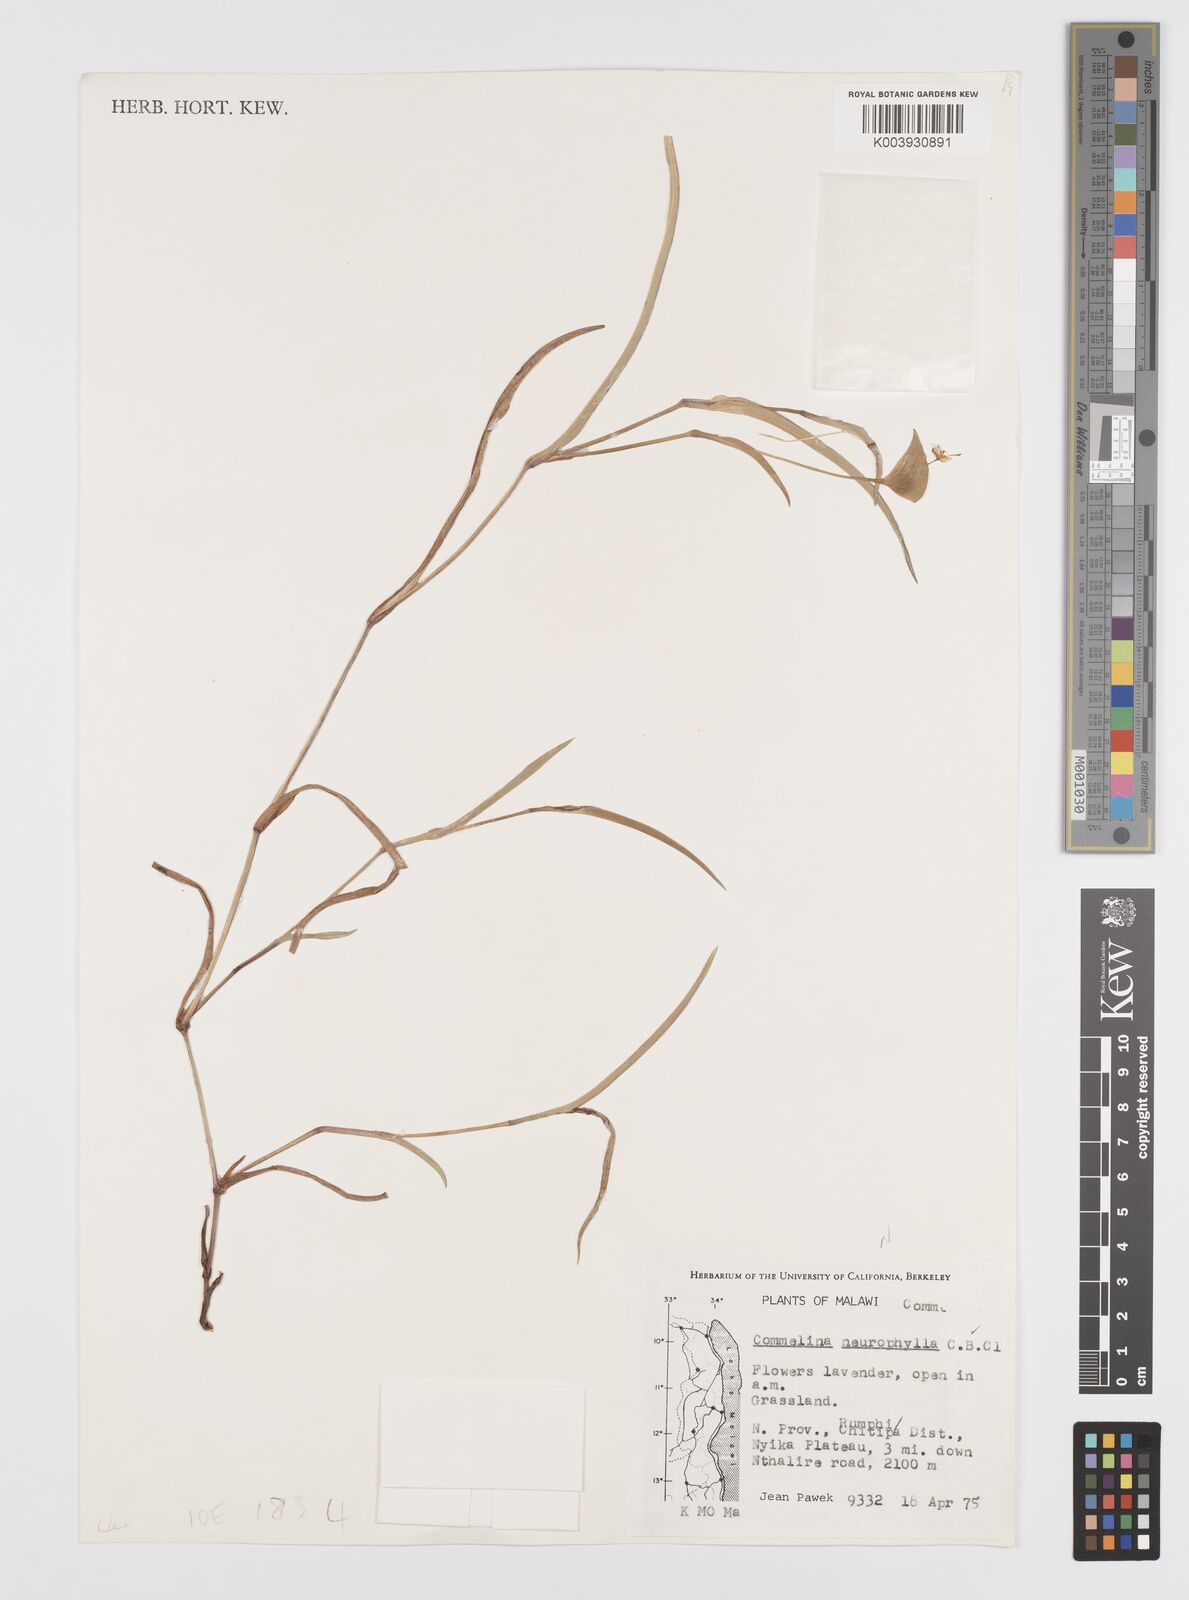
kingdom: Plantae
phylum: Tracheophyta
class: Liliopsida
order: Commelinales
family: Commelinaceae
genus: Commelina
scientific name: Commelina neurophylla
